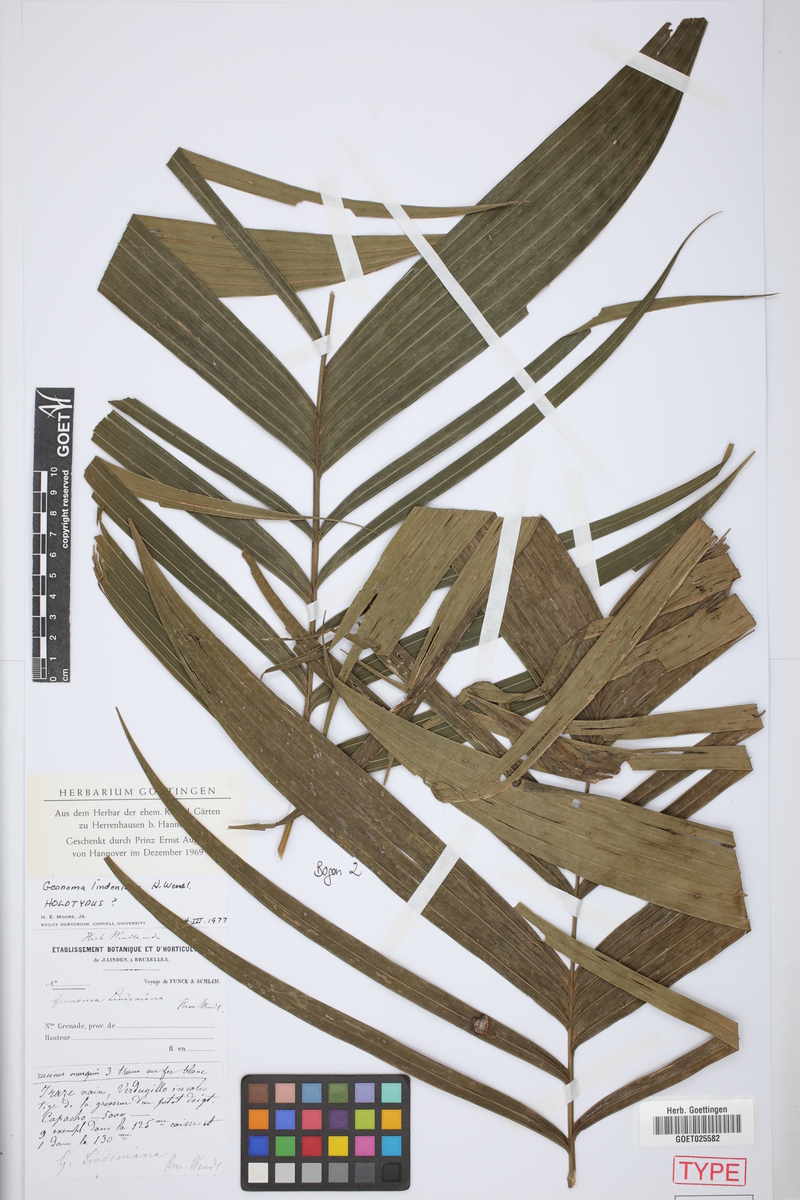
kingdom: Plantae
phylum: Tracheophyta
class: Liliopsida
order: Arecales
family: Arecaceae
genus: Geonoma
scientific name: Geonoma orbignyana
